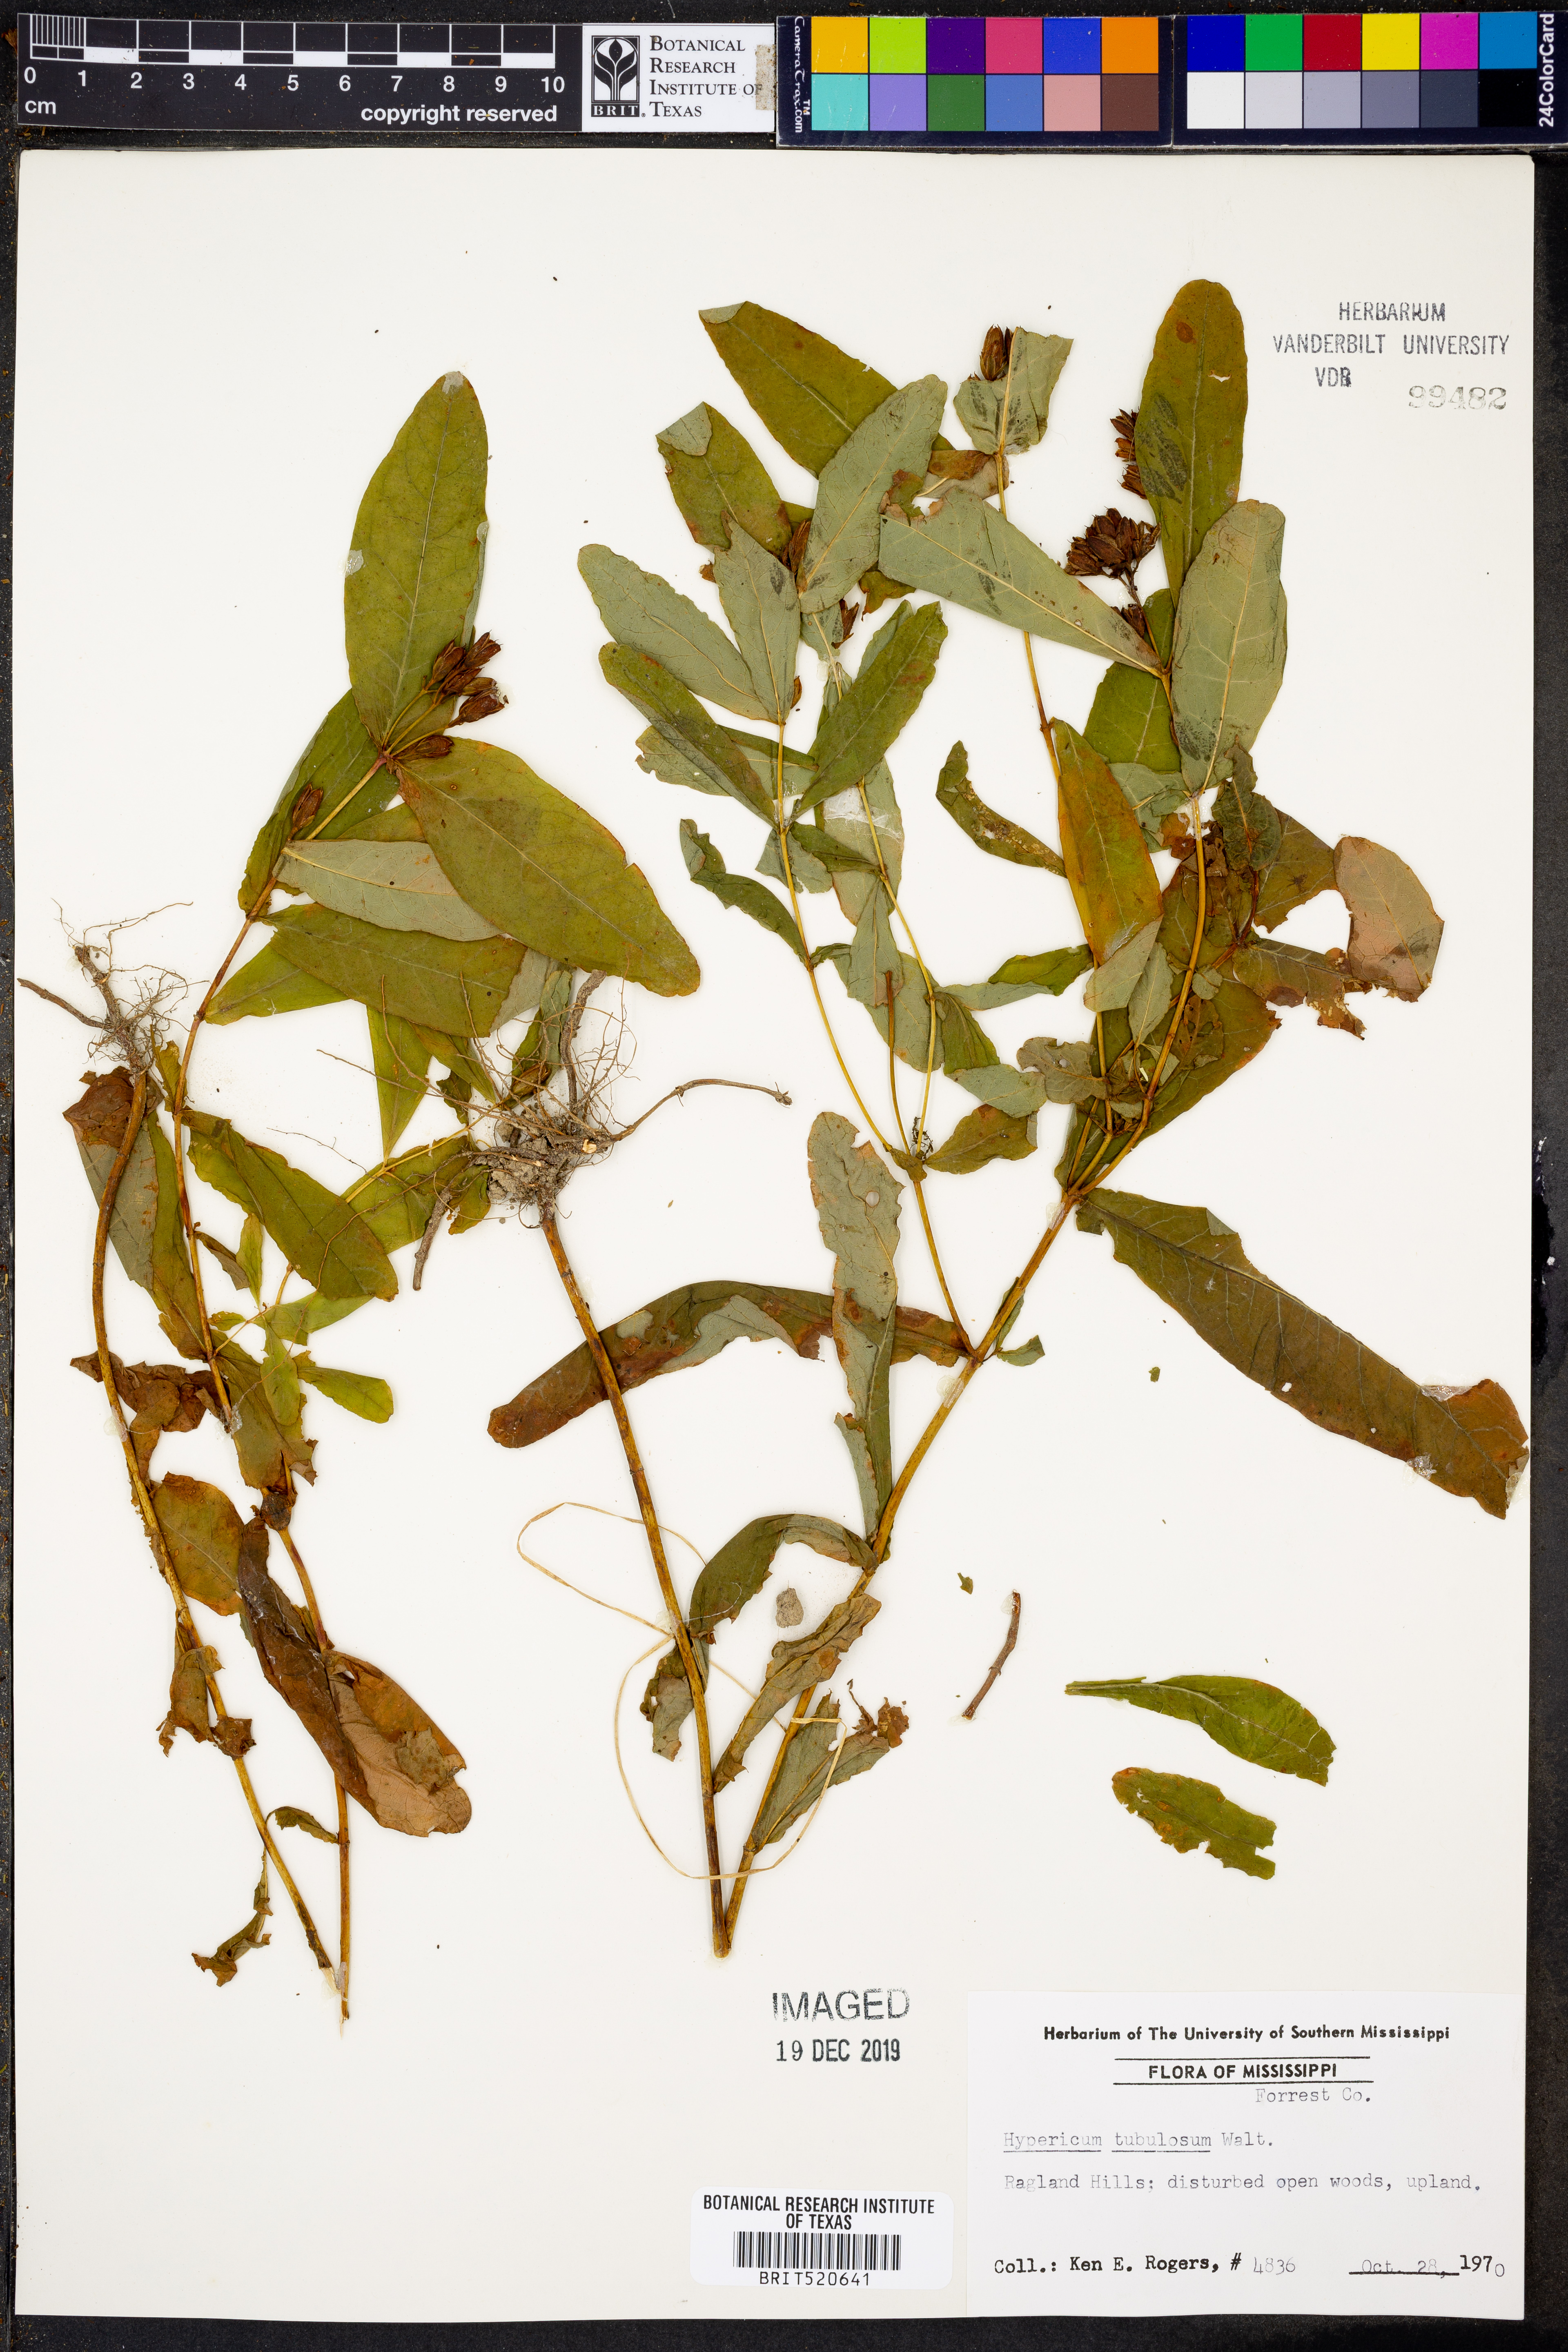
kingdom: Plantae
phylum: Tracheophyta
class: Magnoliopsida
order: Malpighiales
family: Hypericaceae
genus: Triadenum
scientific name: Triadenum tubulosum
